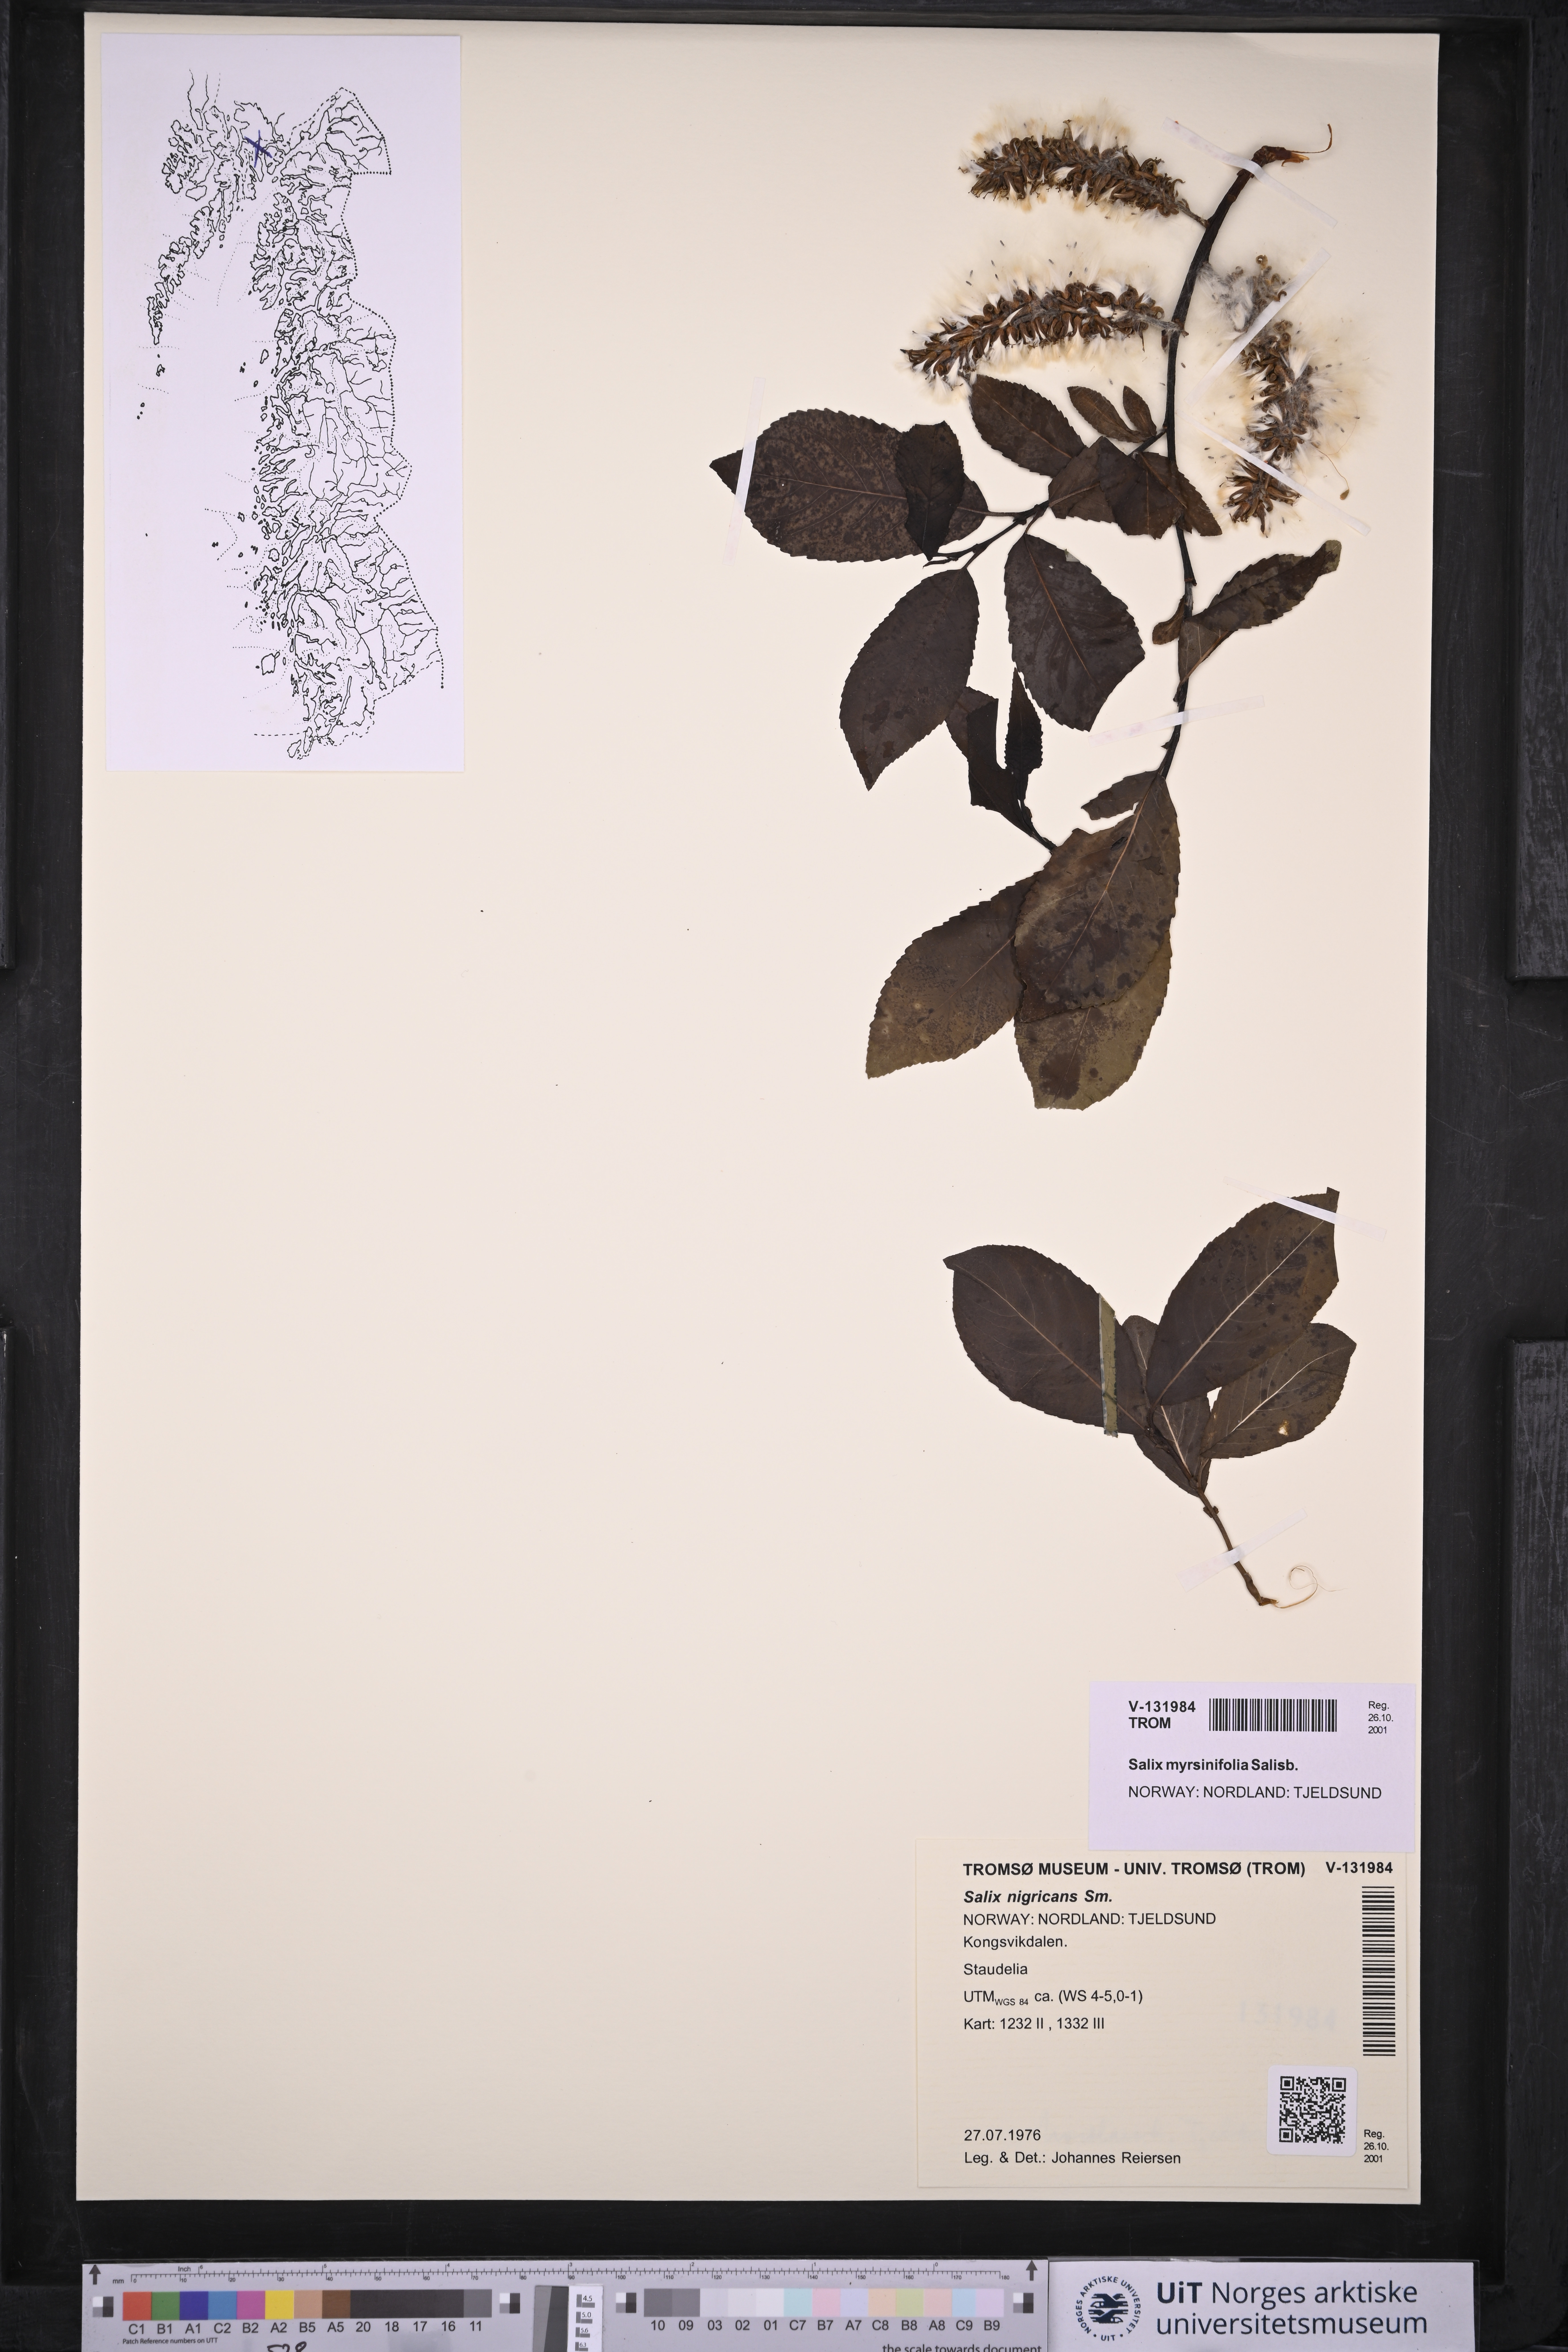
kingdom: Plantae
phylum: Tracheophyta
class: Magnoliopsida
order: Malpighiales
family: Salicaceae
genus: Salix
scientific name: Salix myrsinifolia
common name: Dark-leaved willow
